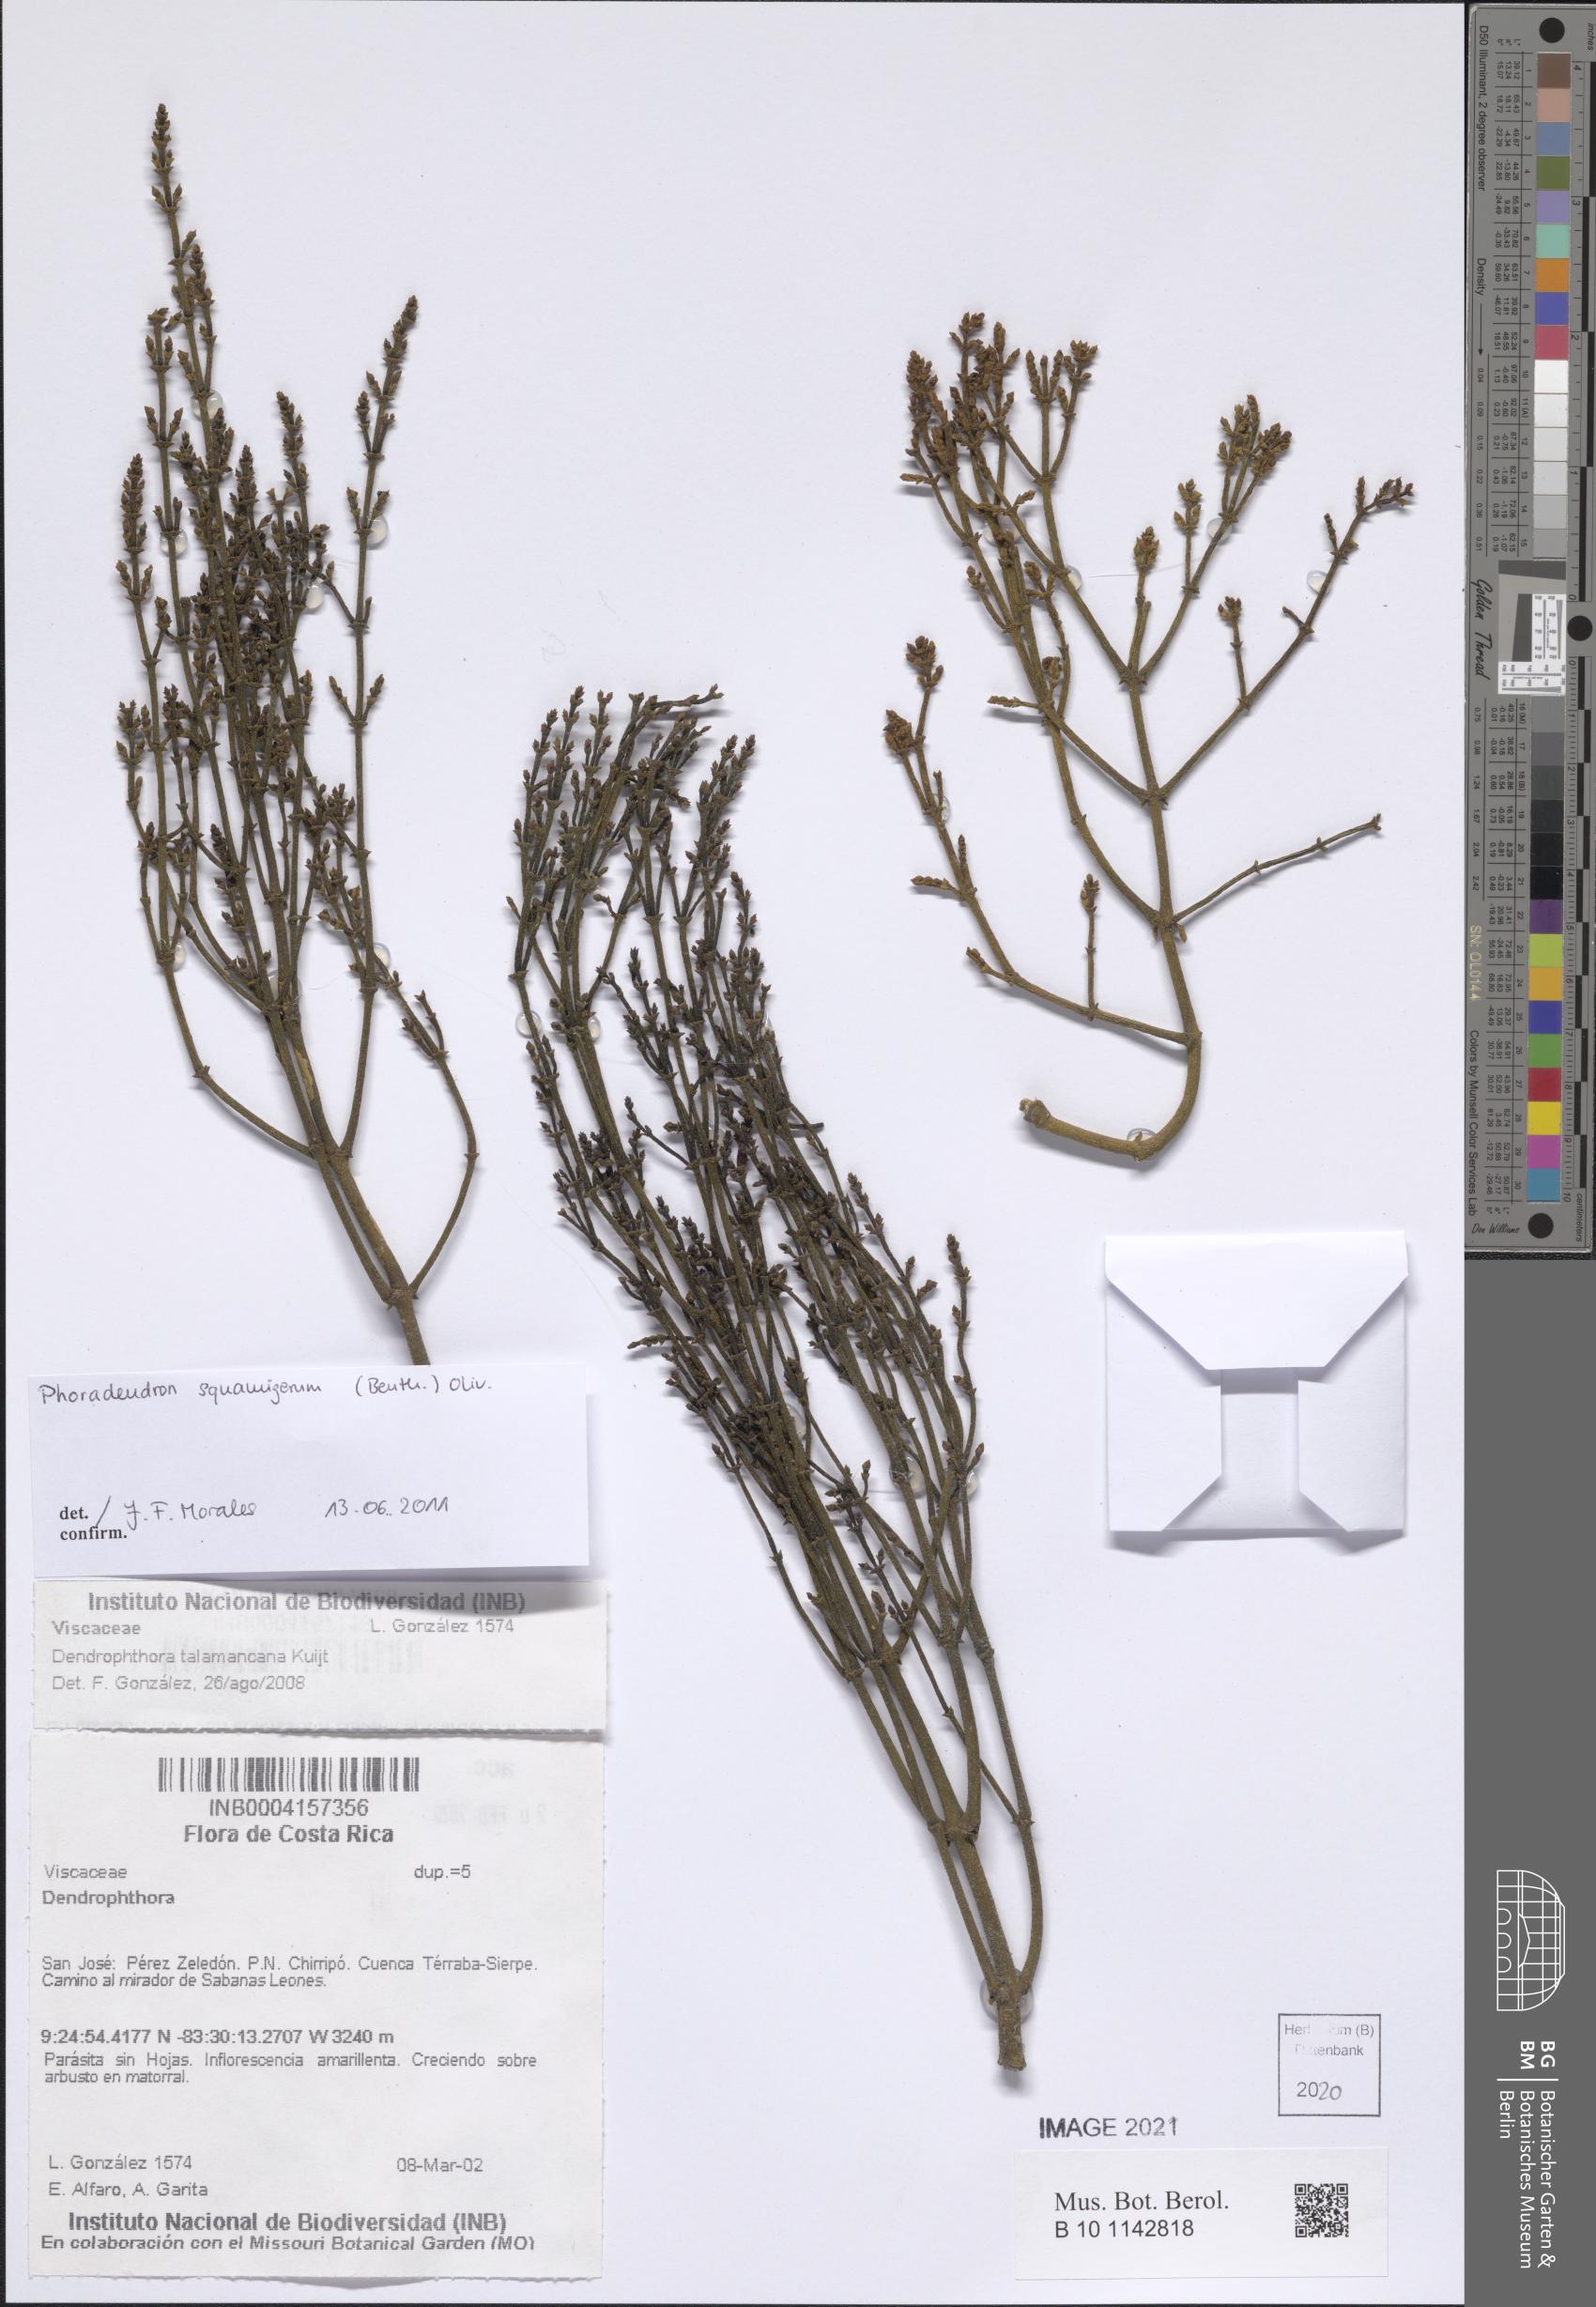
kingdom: Plantae
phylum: Tracheophyta
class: Magnoliopsida
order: Santalales
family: Viscaceae
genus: Dendrophthora
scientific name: Dendrophthora squamigera
